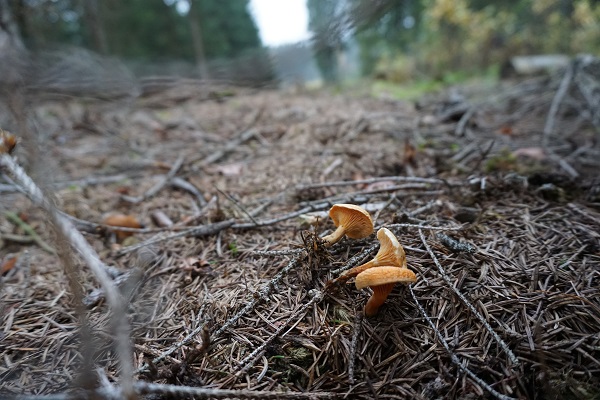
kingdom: Fungi
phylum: Basidiomycota
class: Agaricomycetes
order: Boletales
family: Hygrophoropsidaceae
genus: Hygrophoropsis
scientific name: Hygrophoropsis aurantiaca
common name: almindelig orangekantarel
